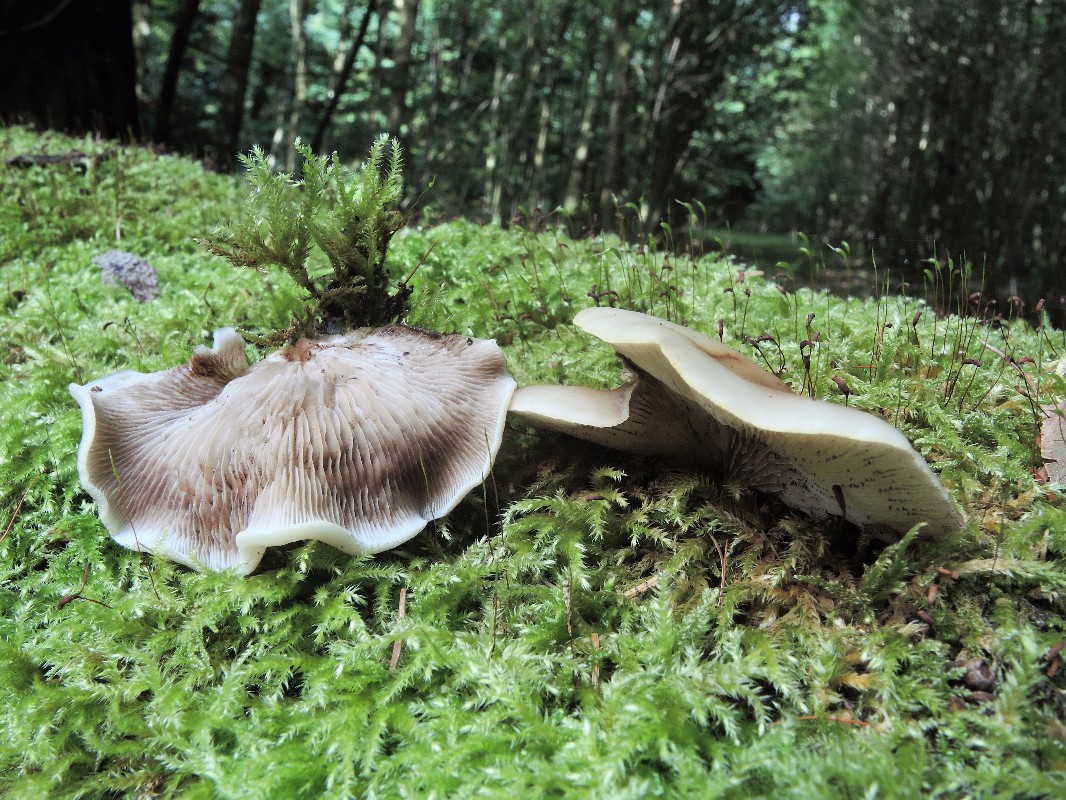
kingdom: Fungi
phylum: Basidiomycota
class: Agaricomycetes
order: Agaricales
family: Crepidotaceae
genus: Crepidotus
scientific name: Crepidotus mollis
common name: blød muslingesvamp
